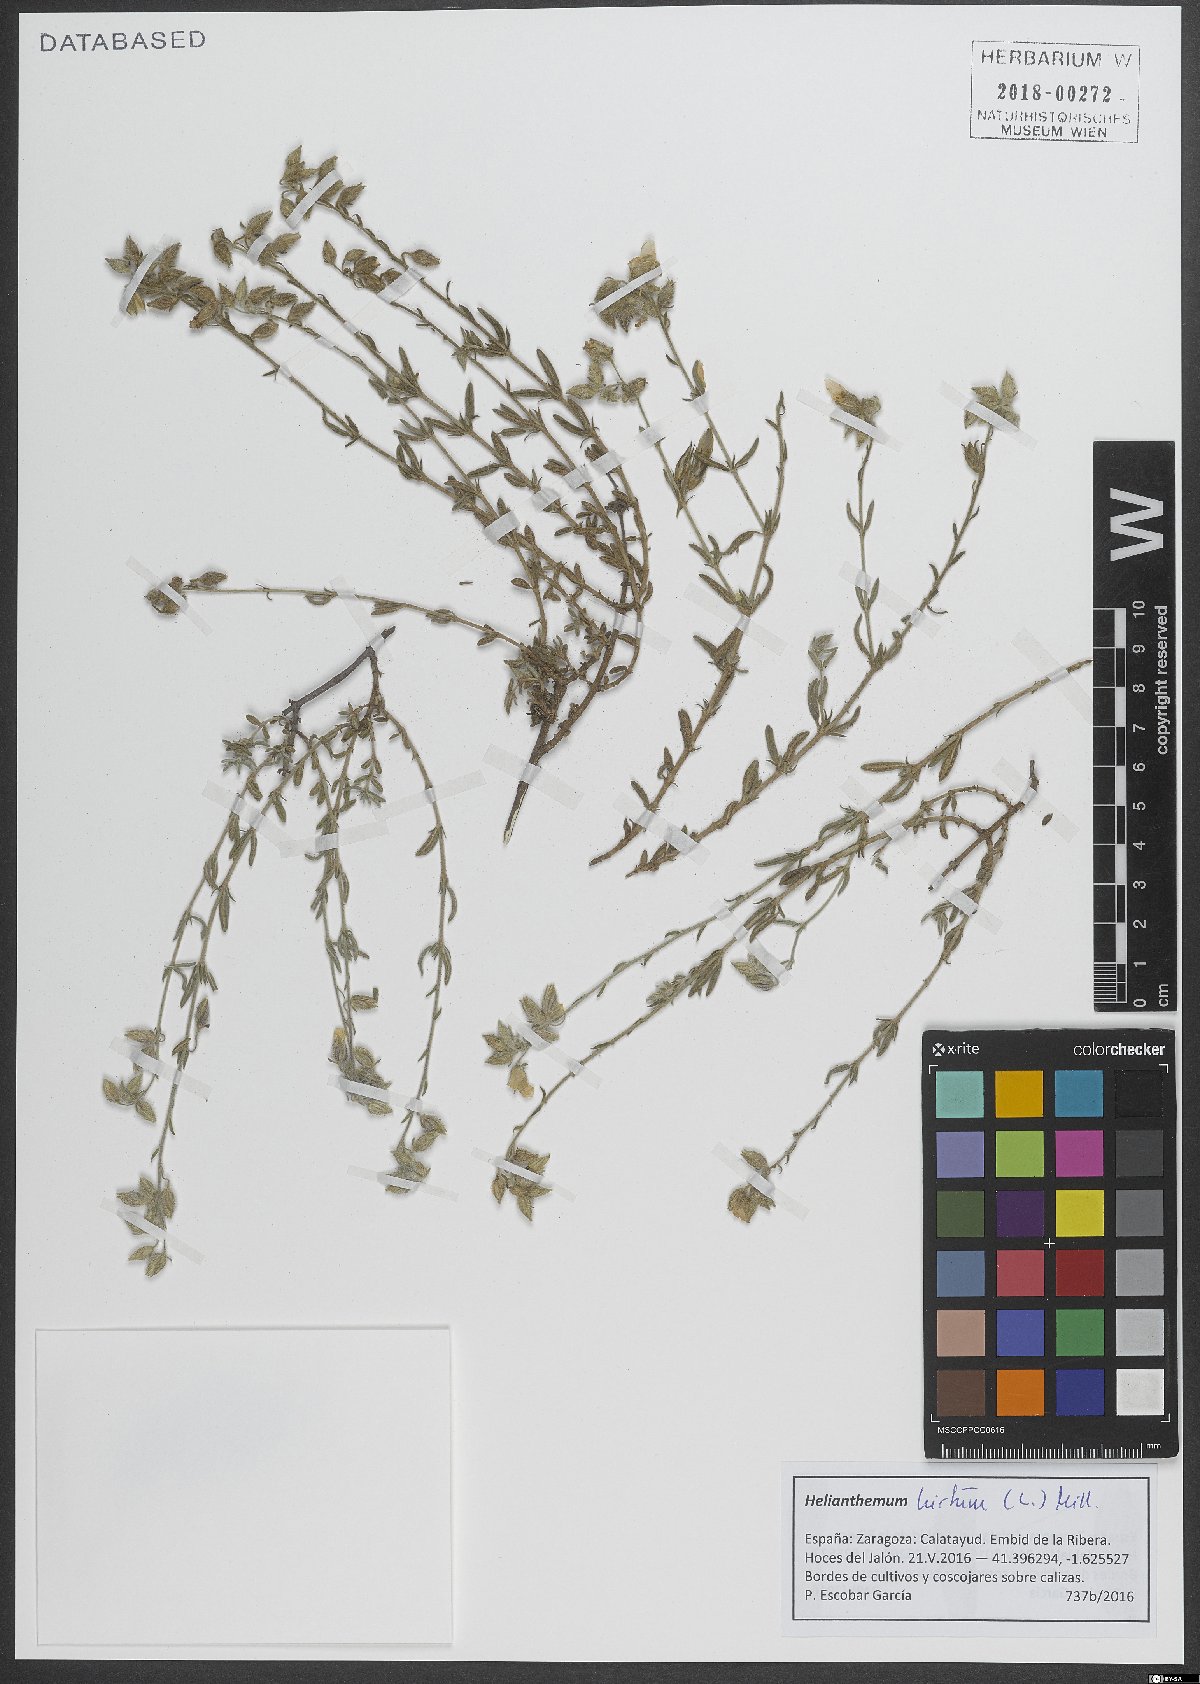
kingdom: Plantae
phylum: Tracheophyta
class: Magnoliopsida
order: Malvales
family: Cistaceae
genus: Helianthemum
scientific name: Helianthemum hirtum
